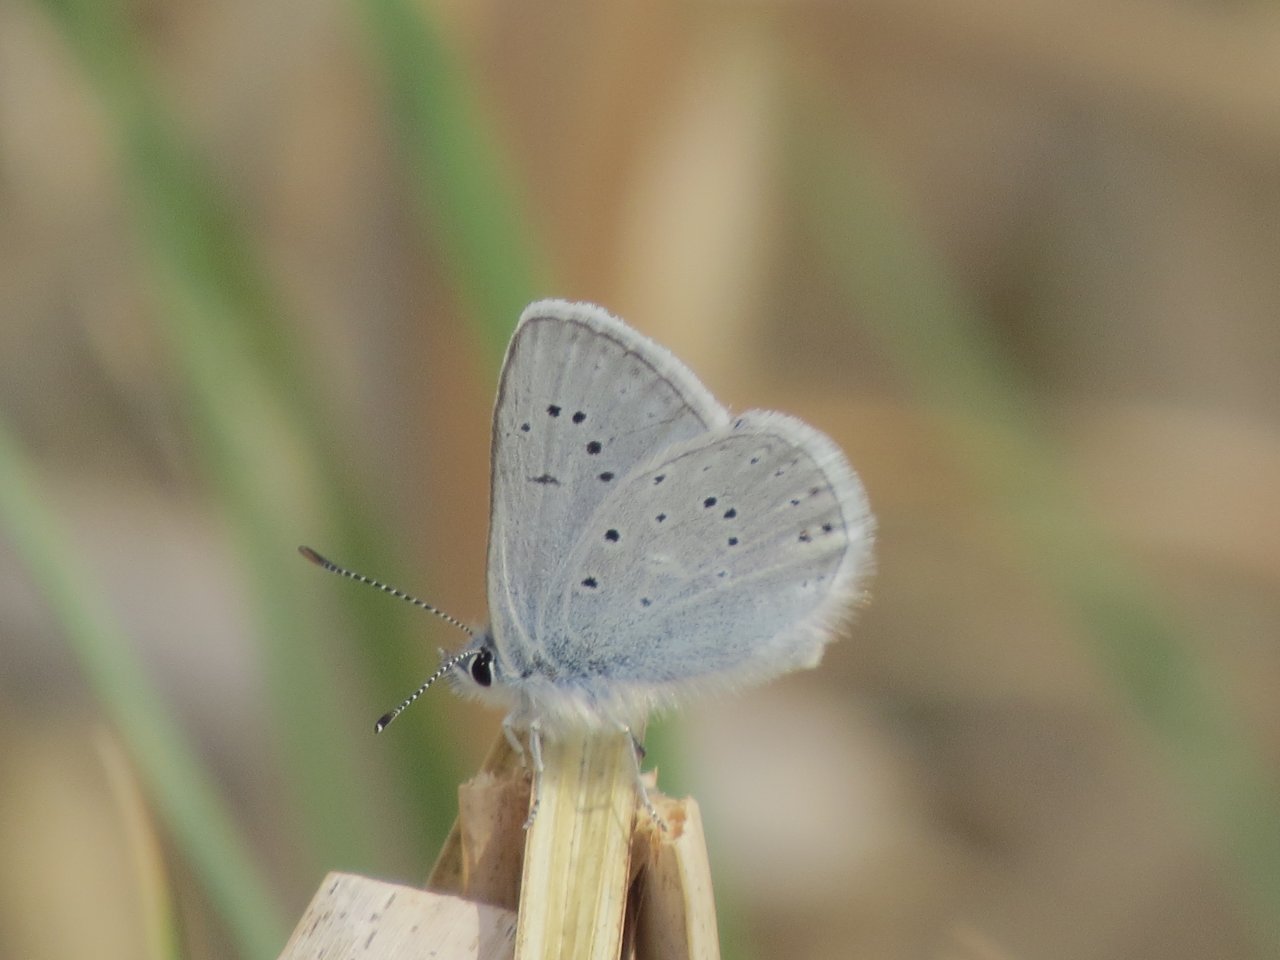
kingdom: Animalia
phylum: Arthropoda
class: Insecta
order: Lepidoptera
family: Lycaenidae
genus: Plebejus
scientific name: Plebejus saepiolus
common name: Greenish Blue
